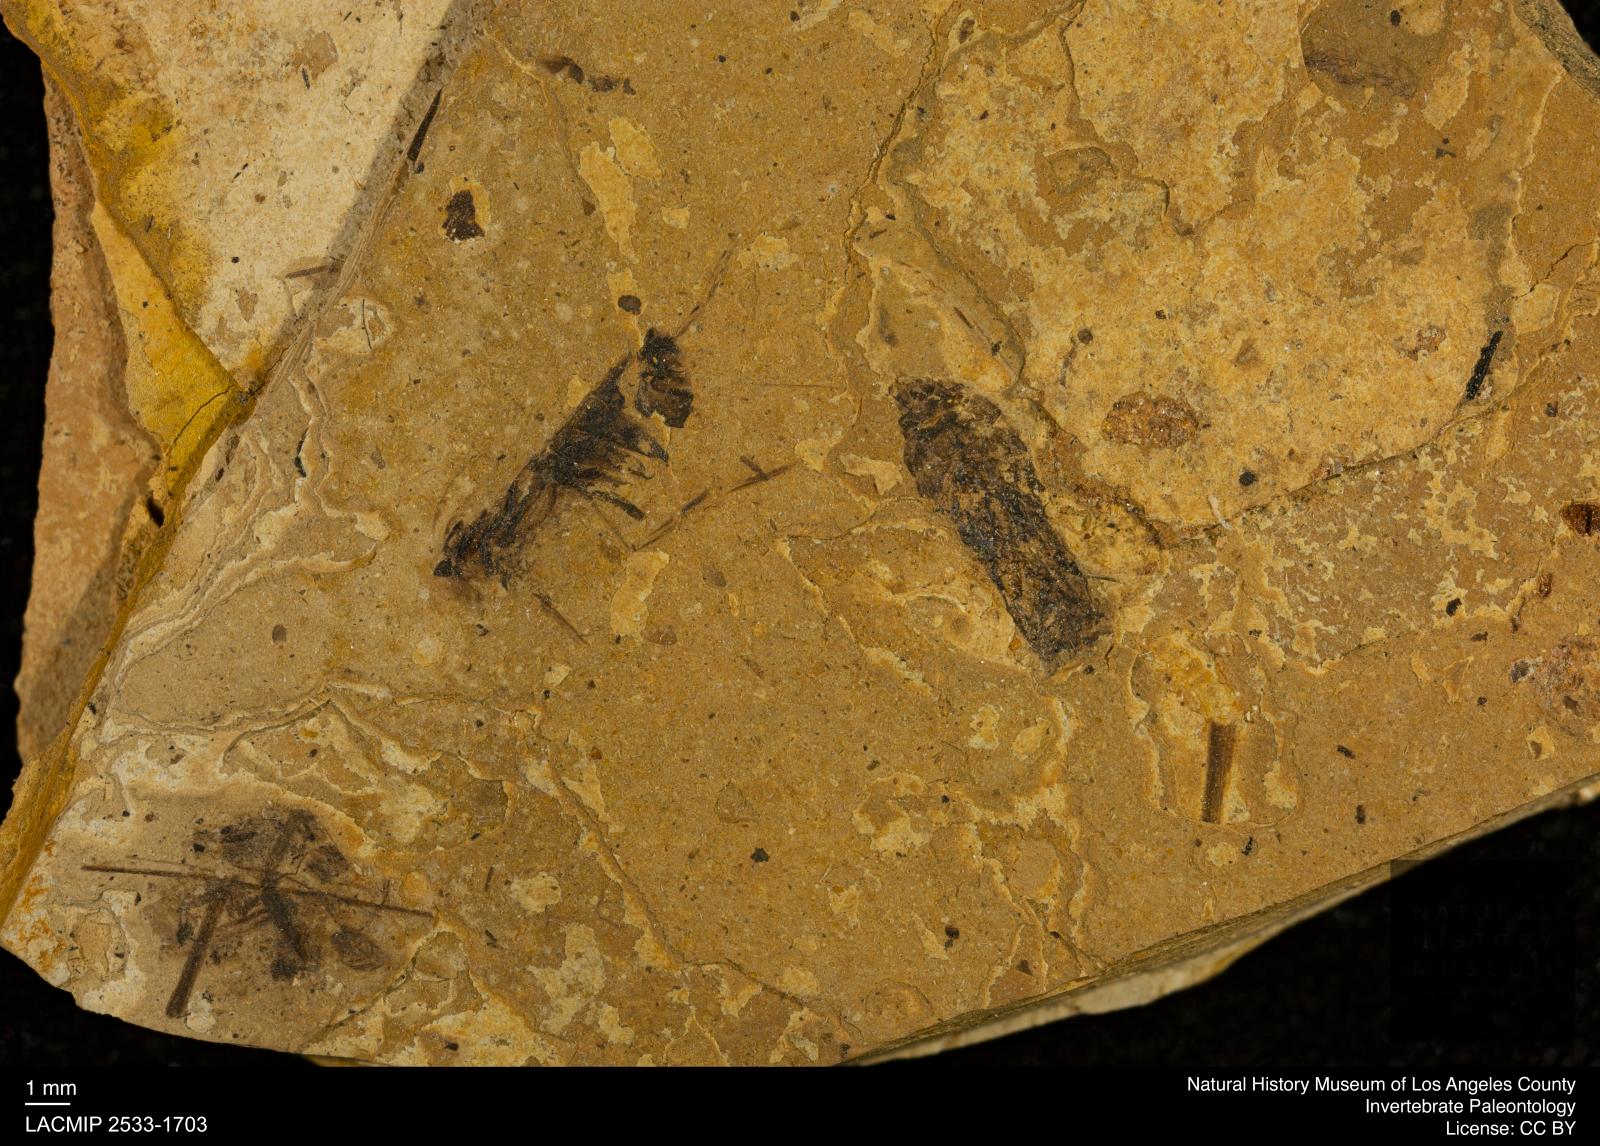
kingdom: Animalia
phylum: Arthropoda
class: Insecta
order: Hemiptera
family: Notonectidae
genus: Notonecta
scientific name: Notonecta
